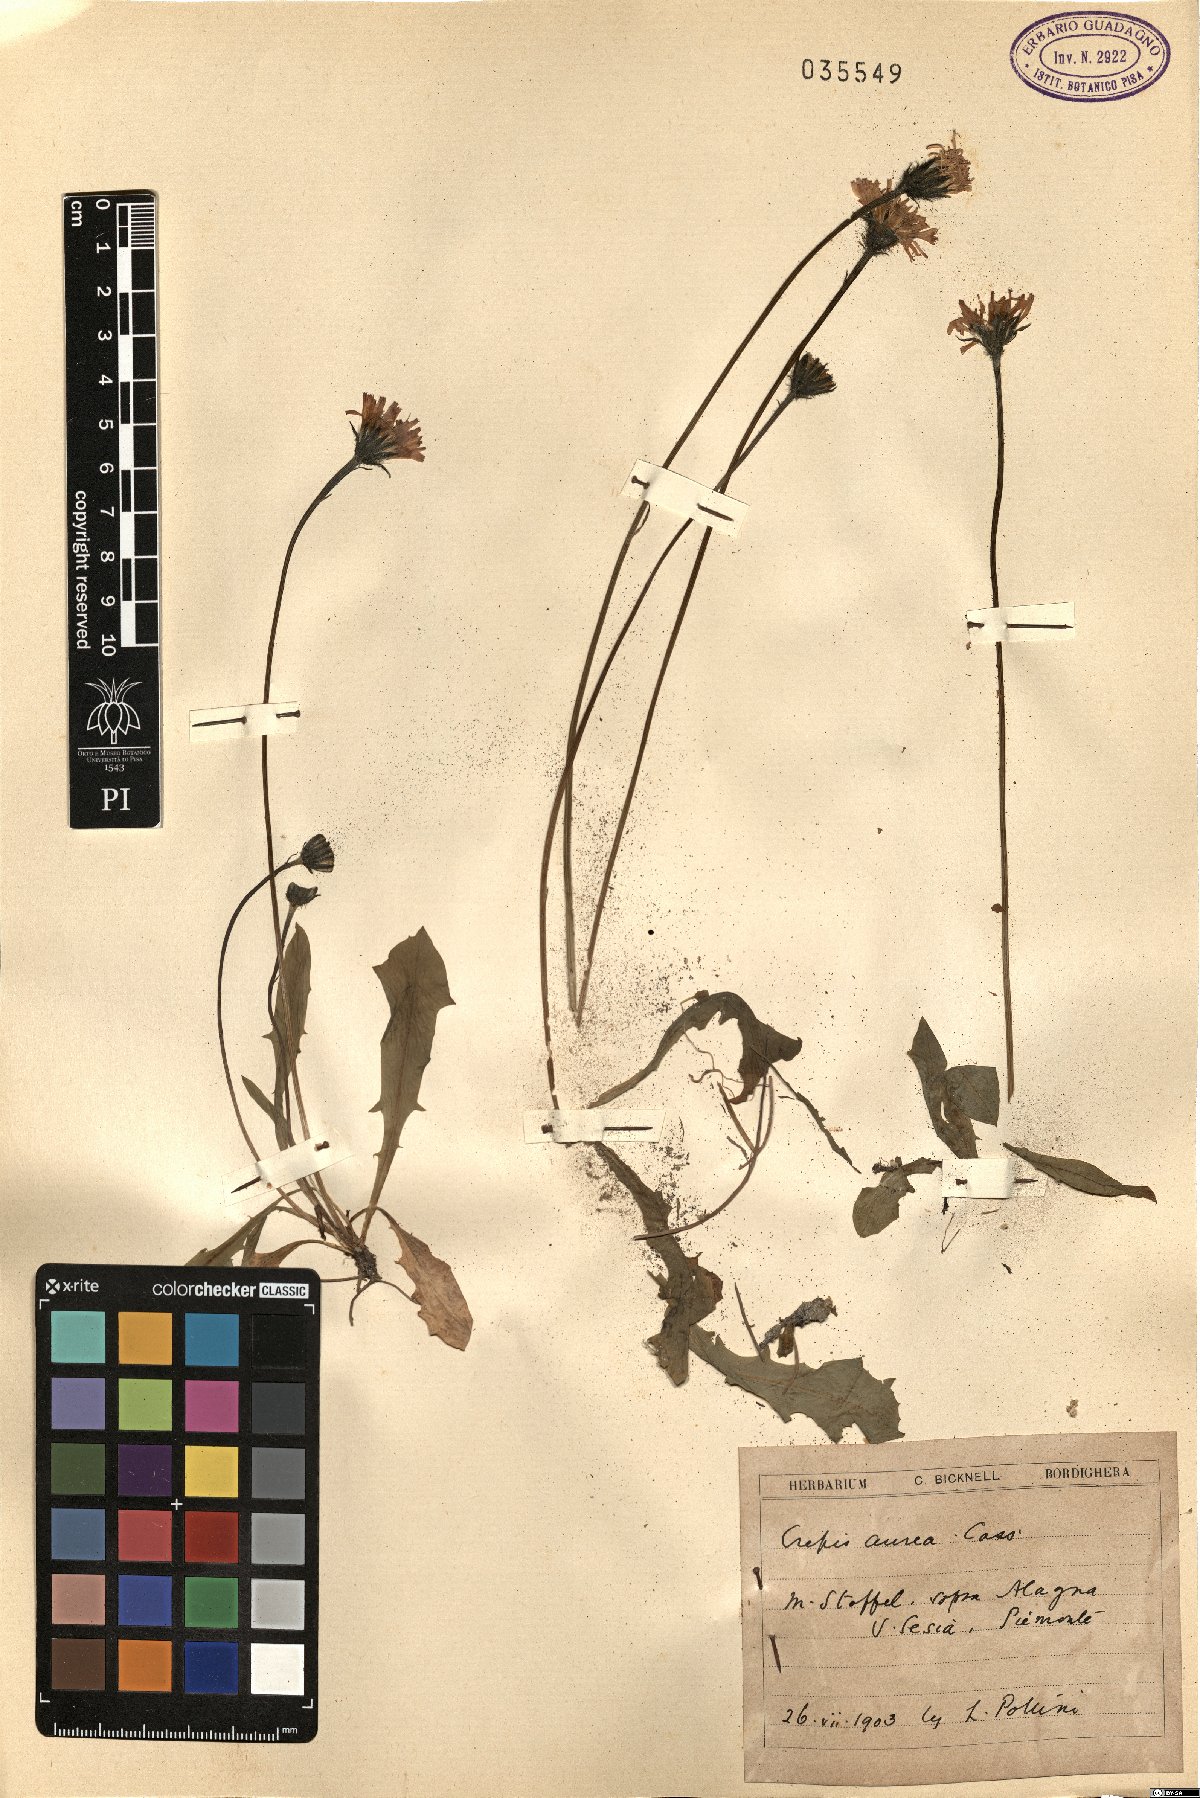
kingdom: Plantae
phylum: Tracheophyta
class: Magnoliopsida
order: Asterales
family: Asteraceae
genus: Crepis
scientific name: Crepis aurea
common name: Golden hawk's-beard
